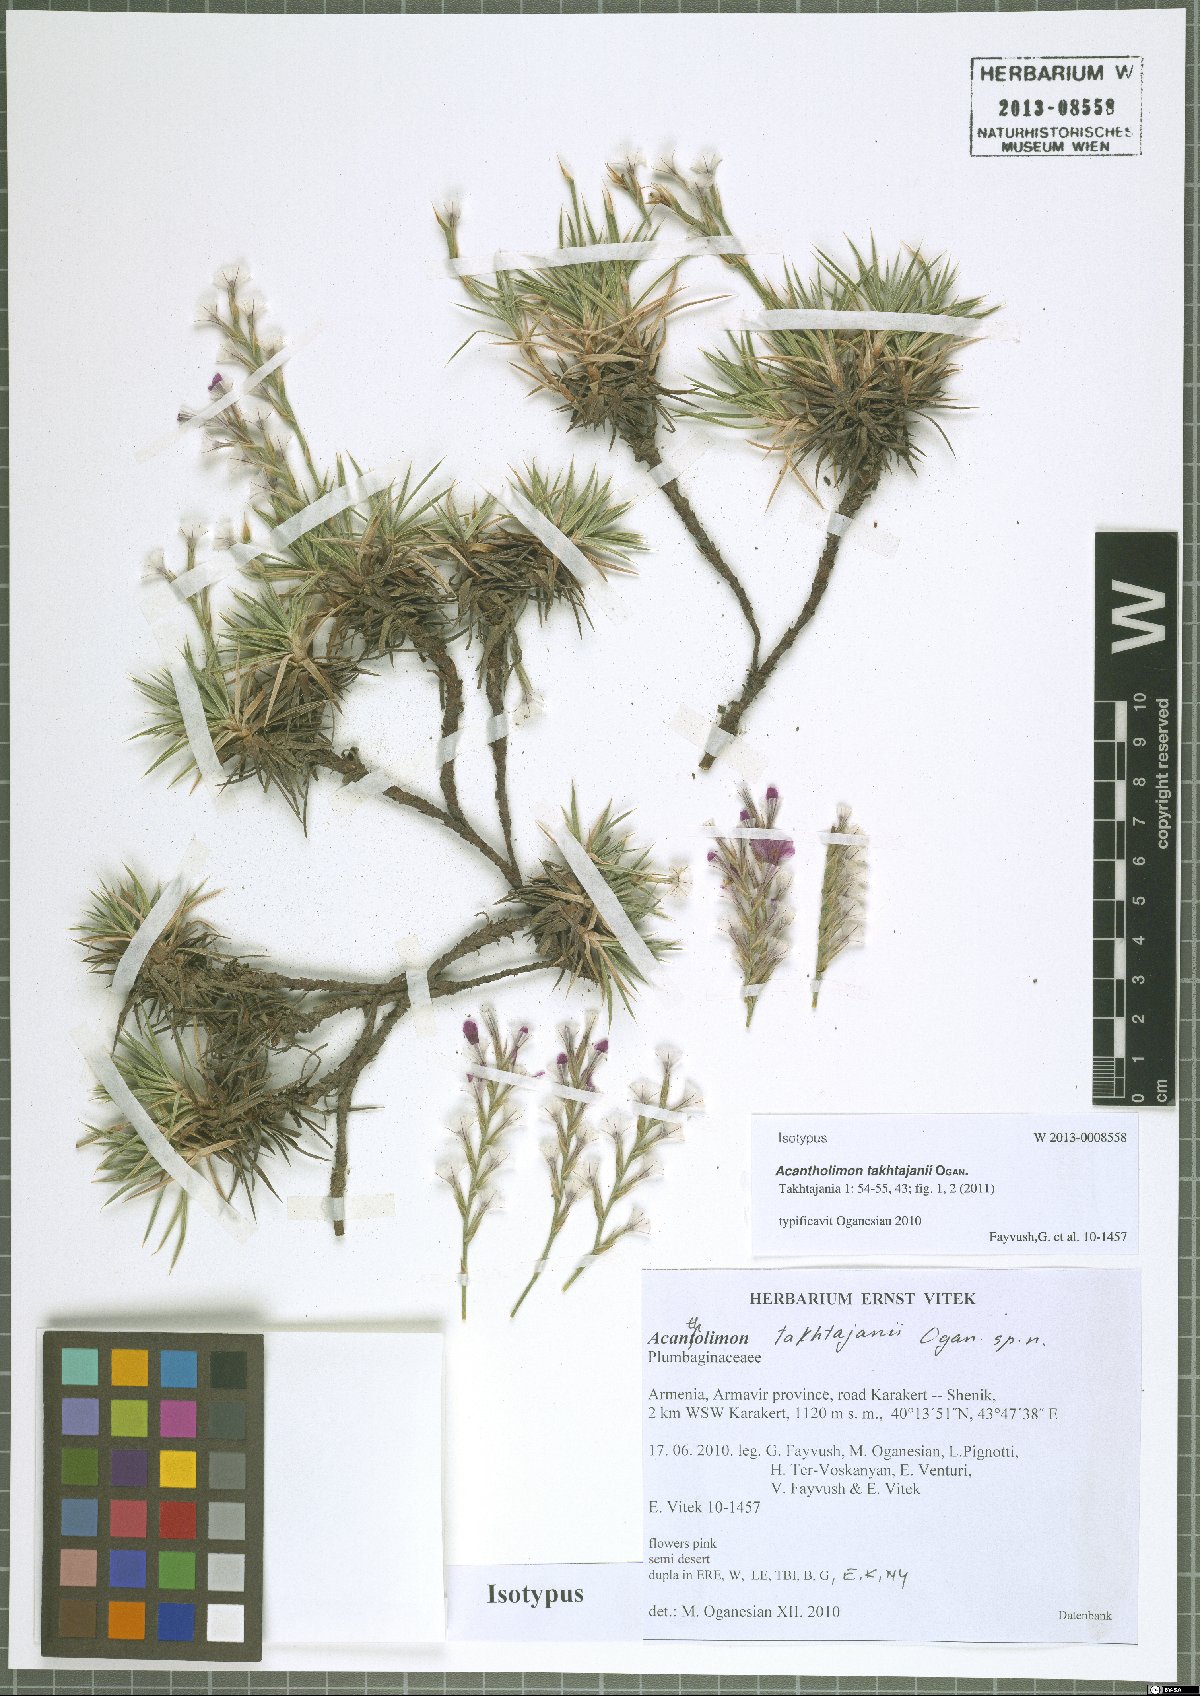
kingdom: Plantae
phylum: Tracheophyta
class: Magnoliopsida
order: Caryophyllales
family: Plumbaginaceae
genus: Acantholimon
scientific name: Acantholimon takhtajanii
